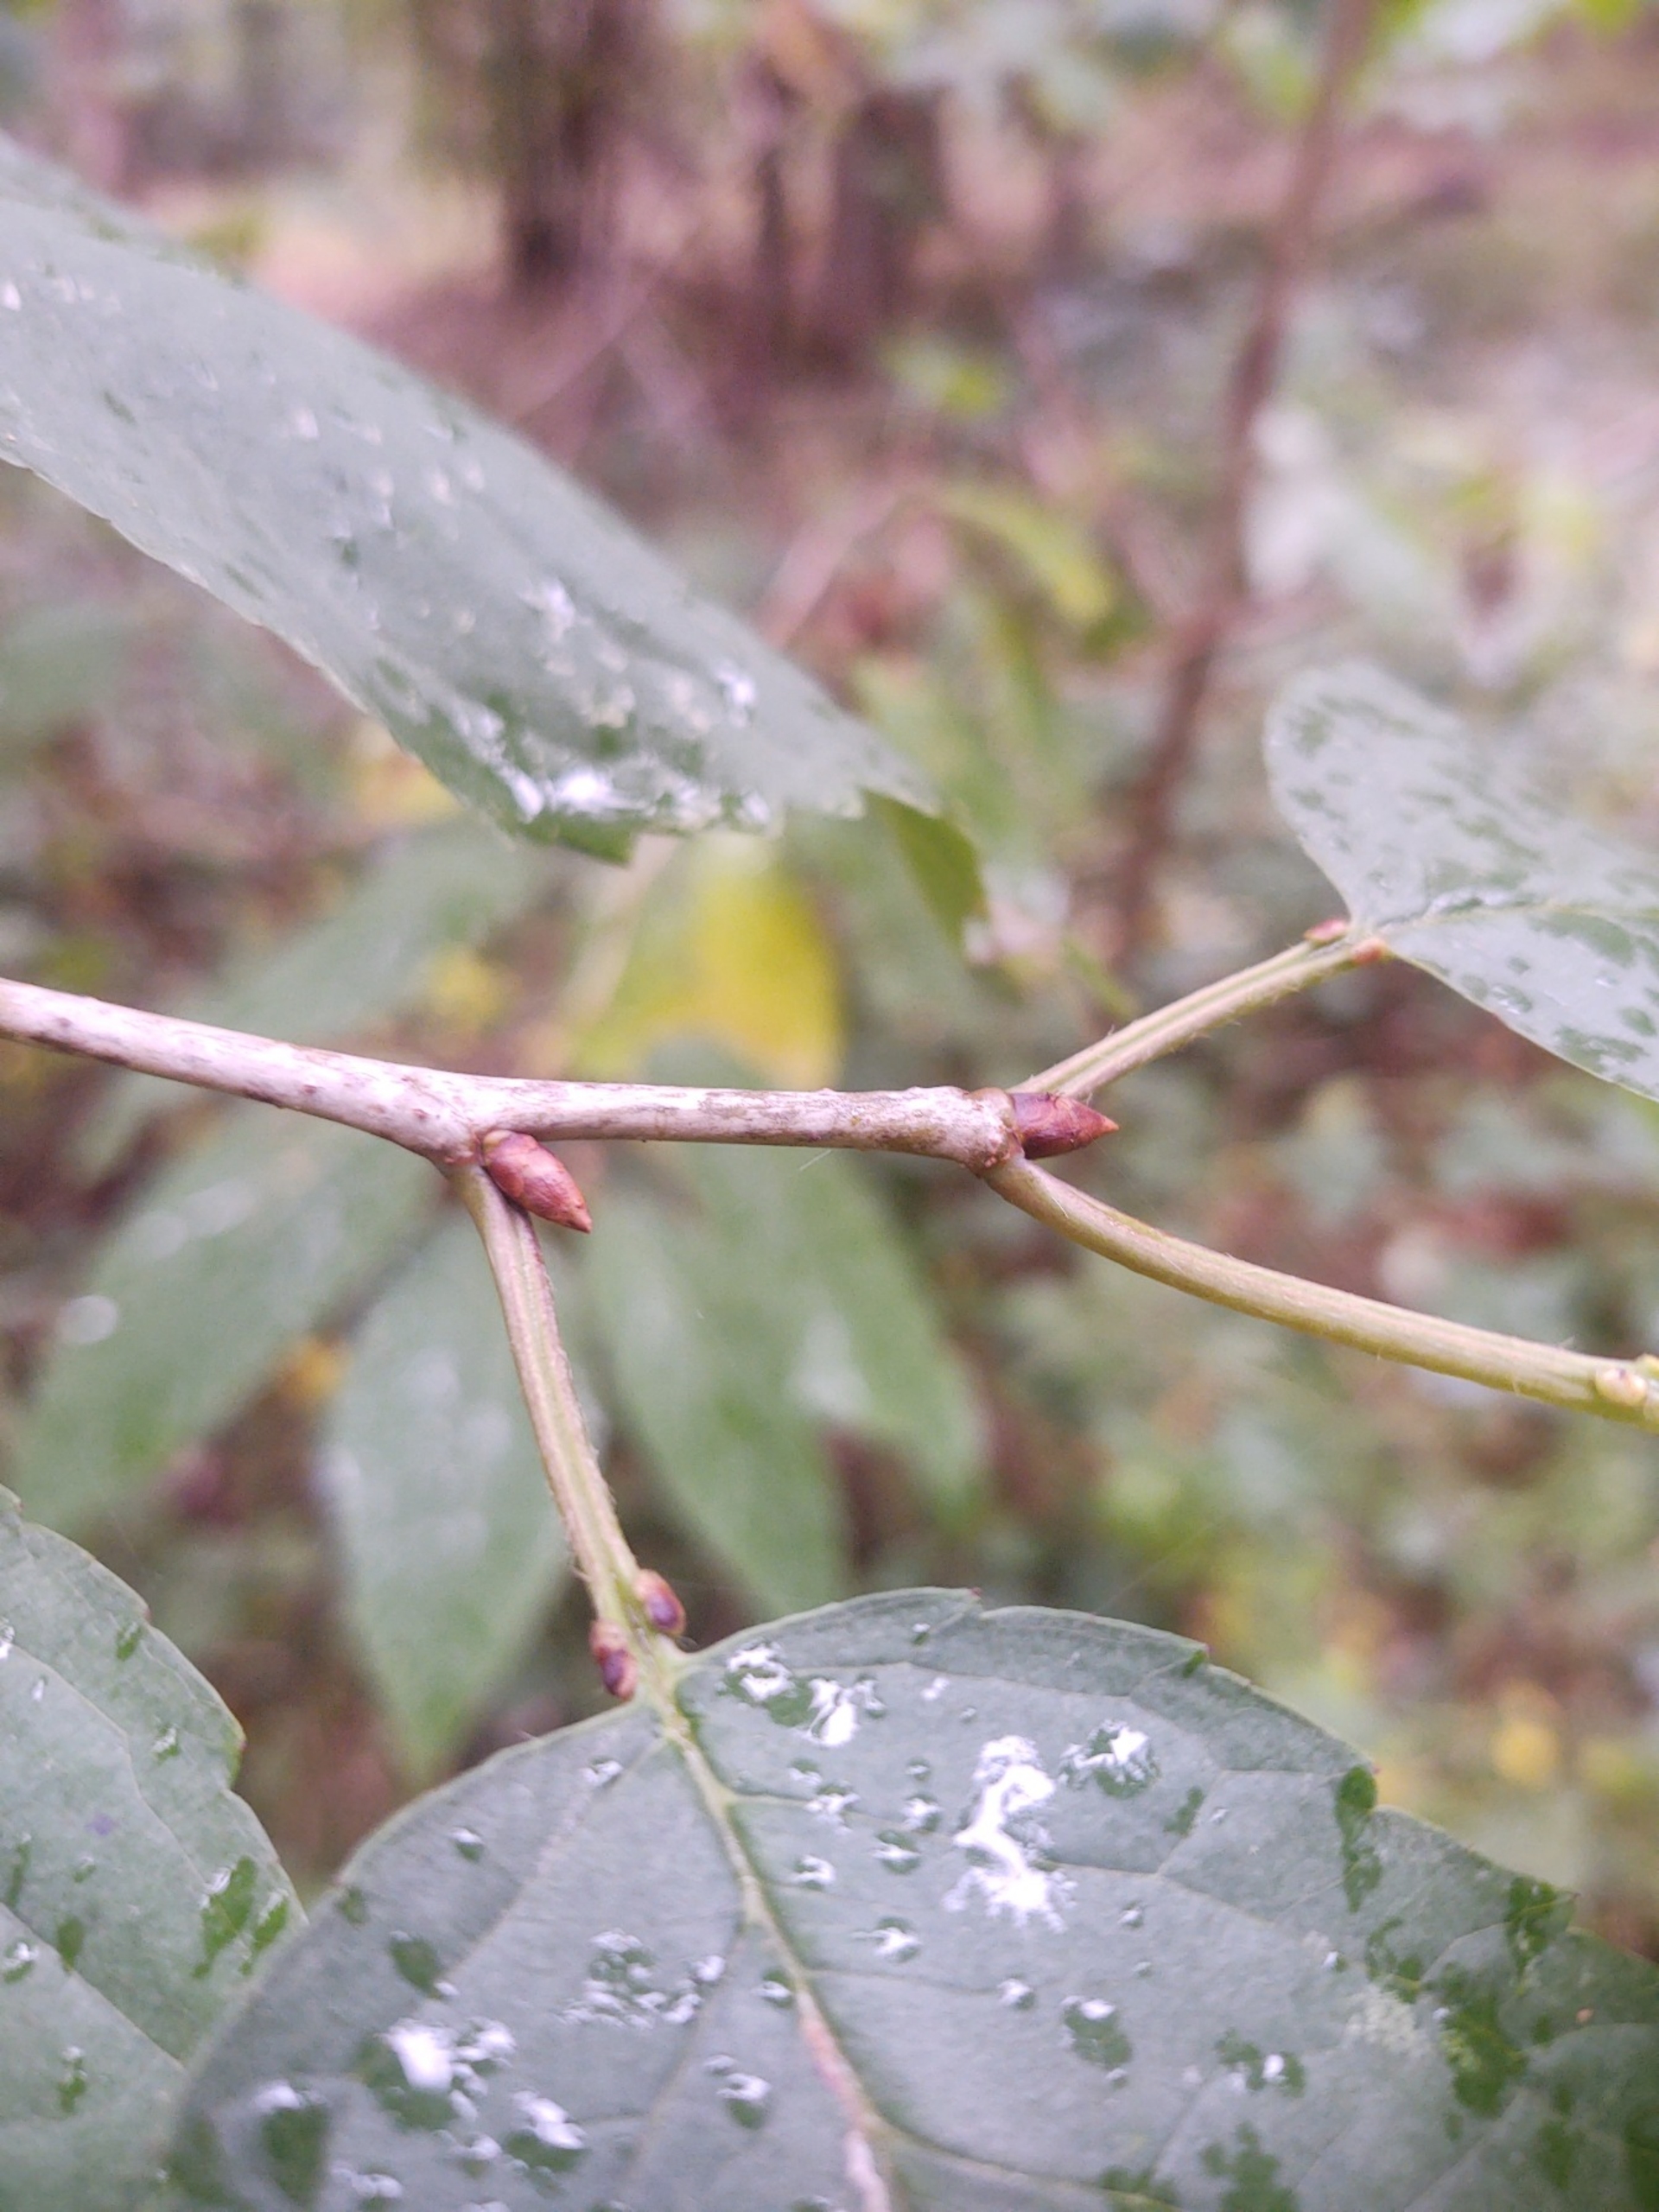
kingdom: Plantae
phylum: Tracheophyta
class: Magnoliopsida
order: Rosales
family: Rosaceae
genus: Prunus
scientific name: Prunus avium
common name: Fugle-kirsebær
